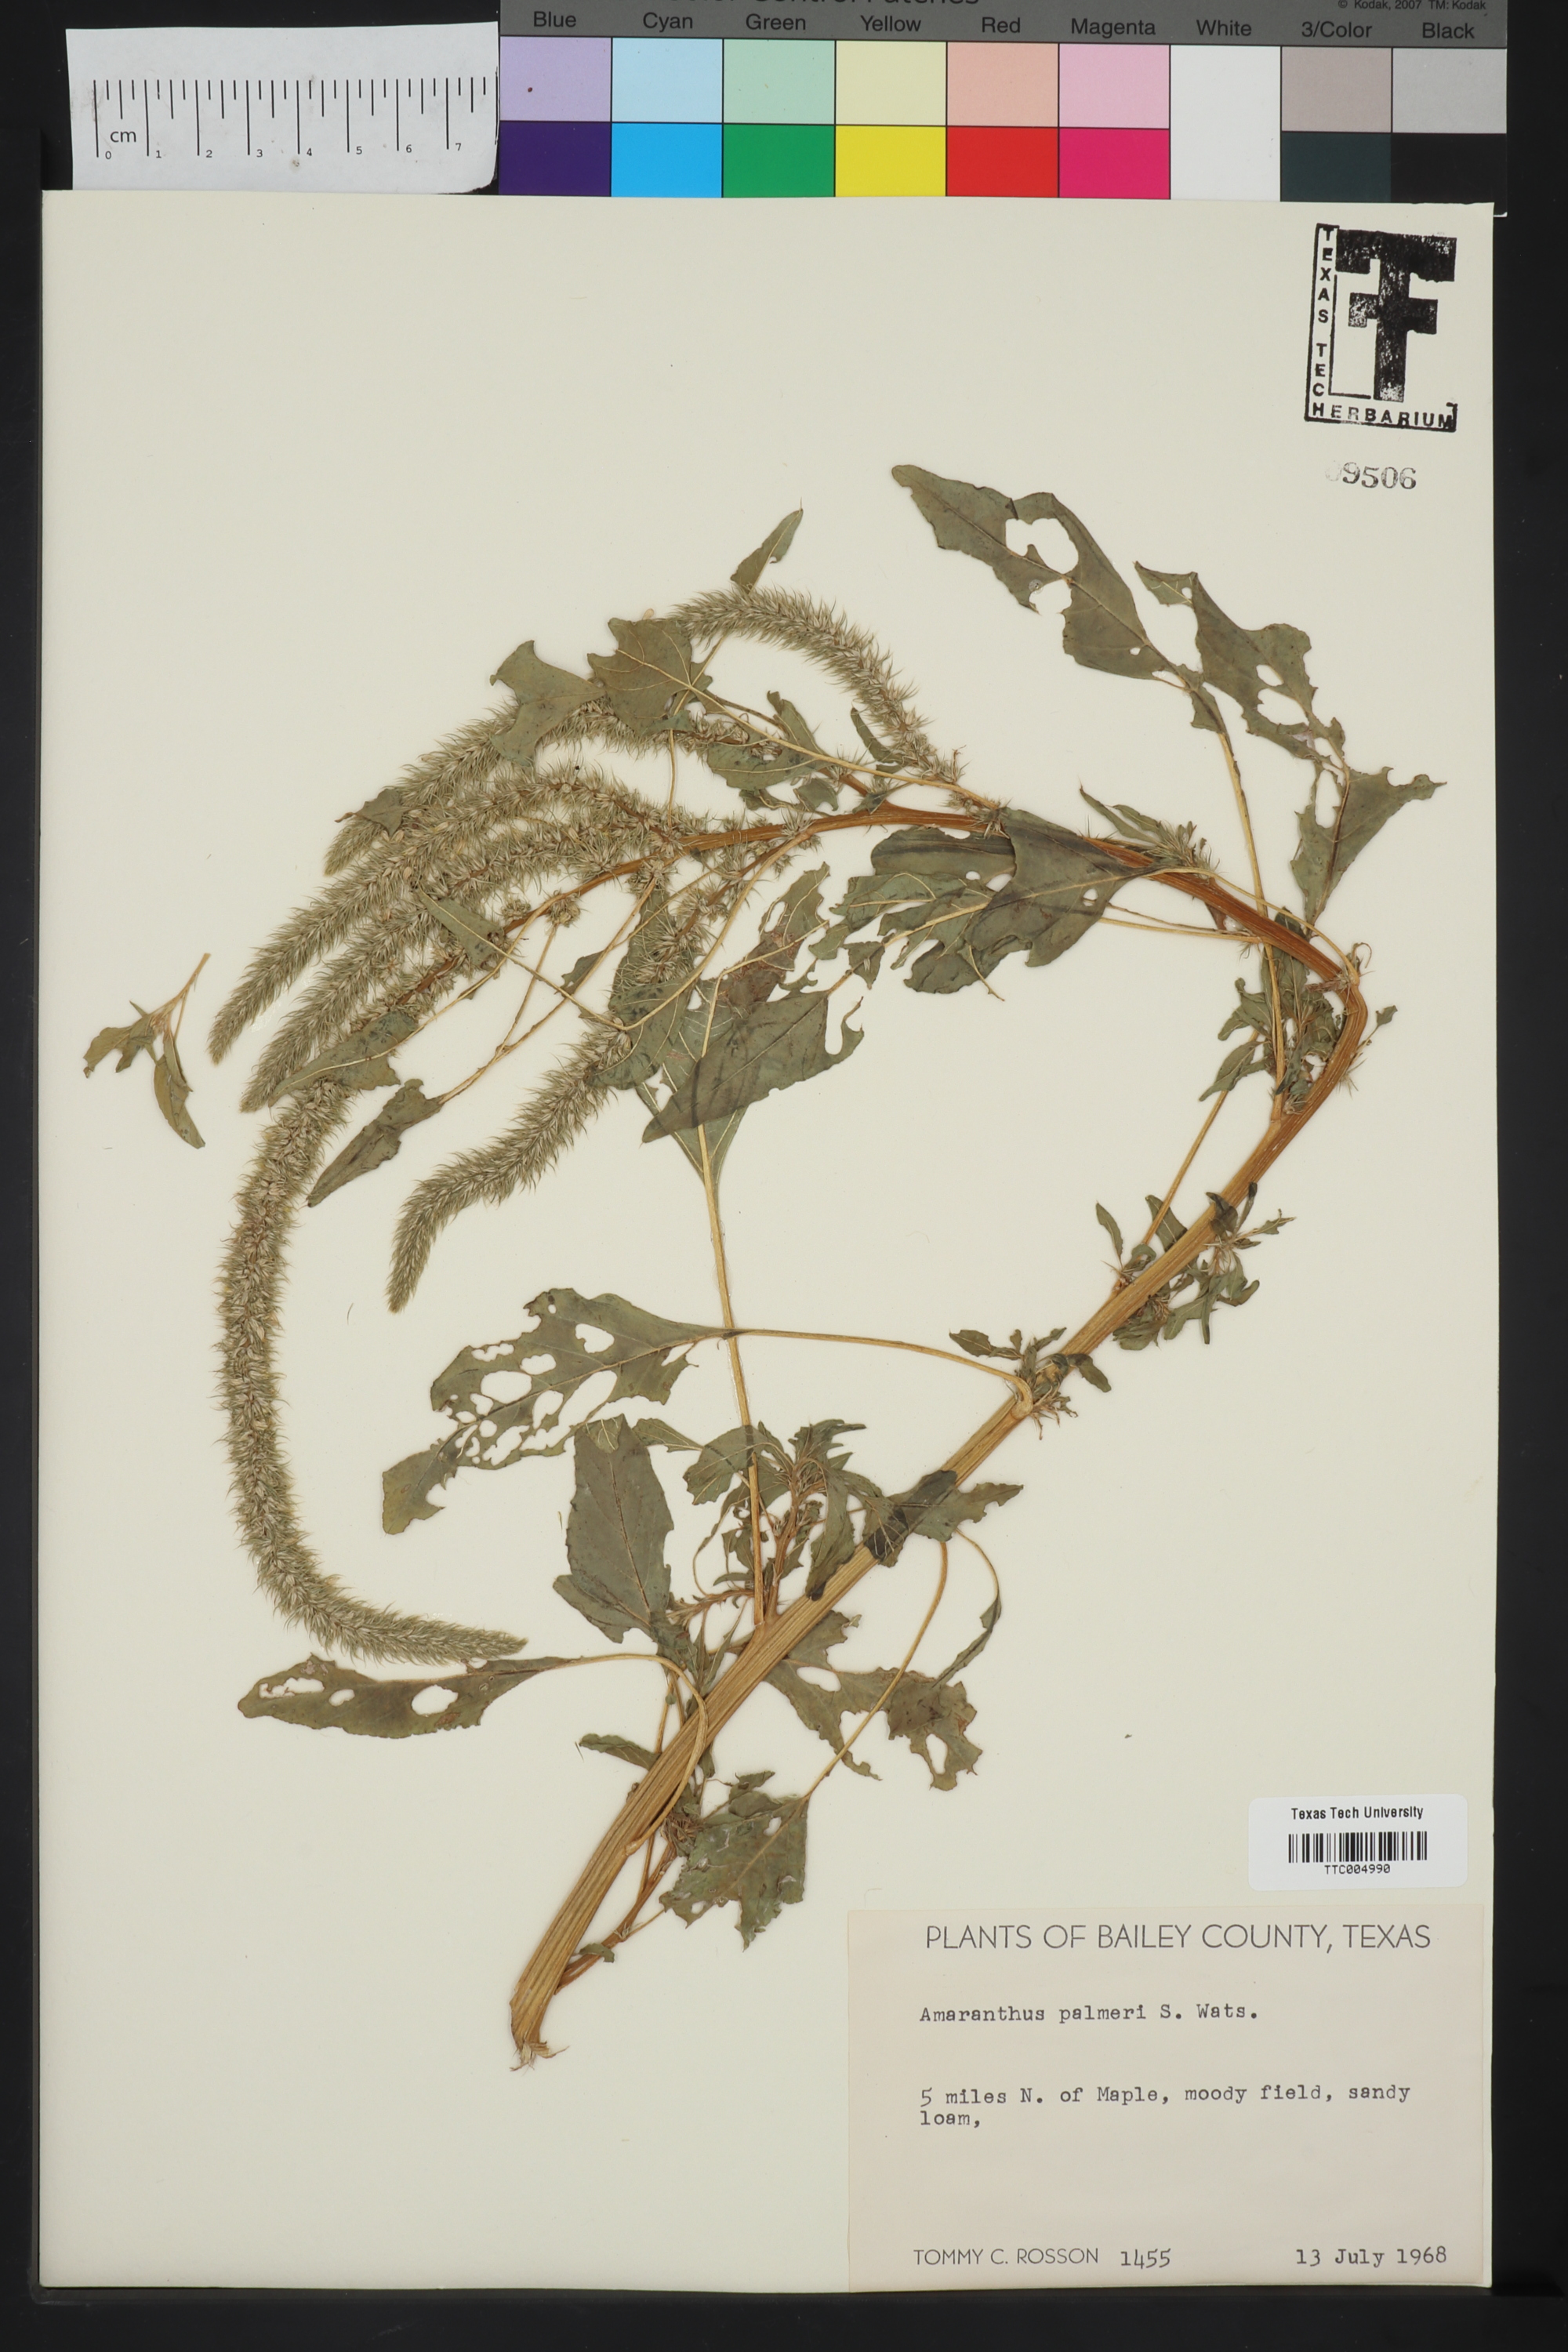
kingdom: Plantae
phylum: Tracheophyta
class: Magnoliopsida
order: Caryophyllales
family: Amaranthaceae
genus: Amaranthus
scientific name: Amaranthus palmeri
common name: Dioecious amaranth
